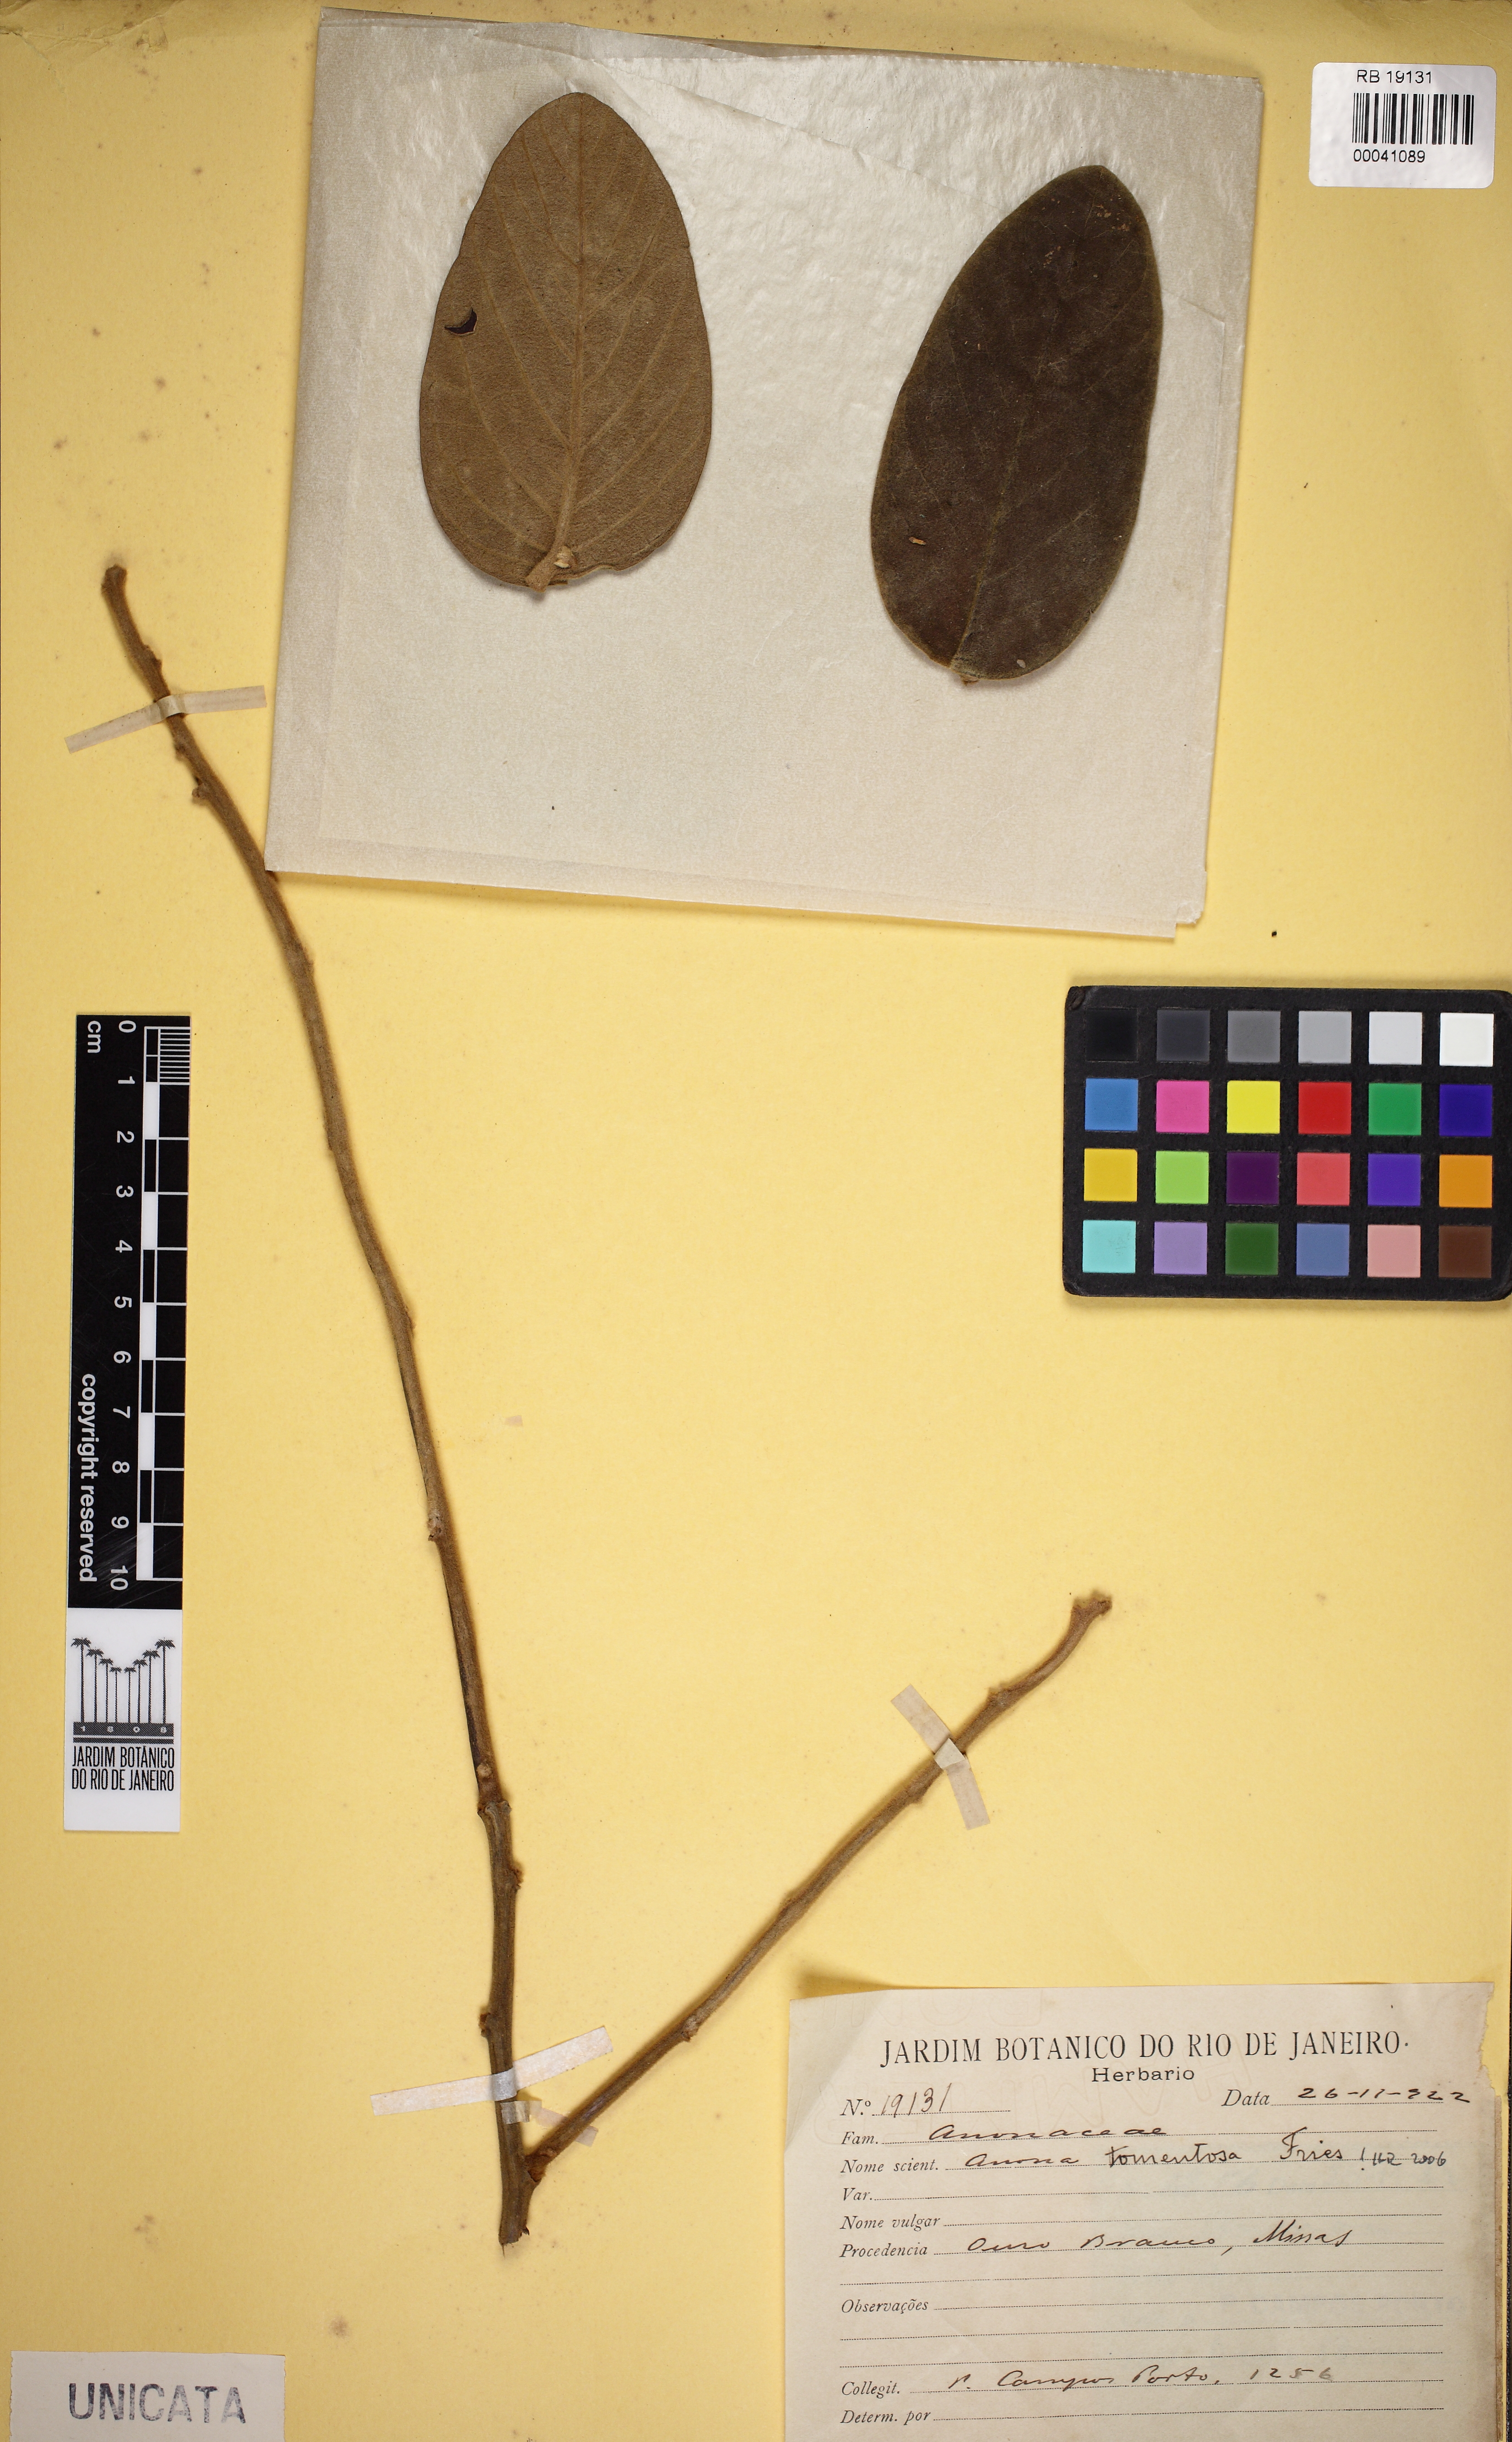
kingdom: Plantae
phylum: Tracheophyta
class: Magnoliopsida
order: Magnoliales
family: Annonaceae
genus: Annona
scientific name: Annona tomentosa
